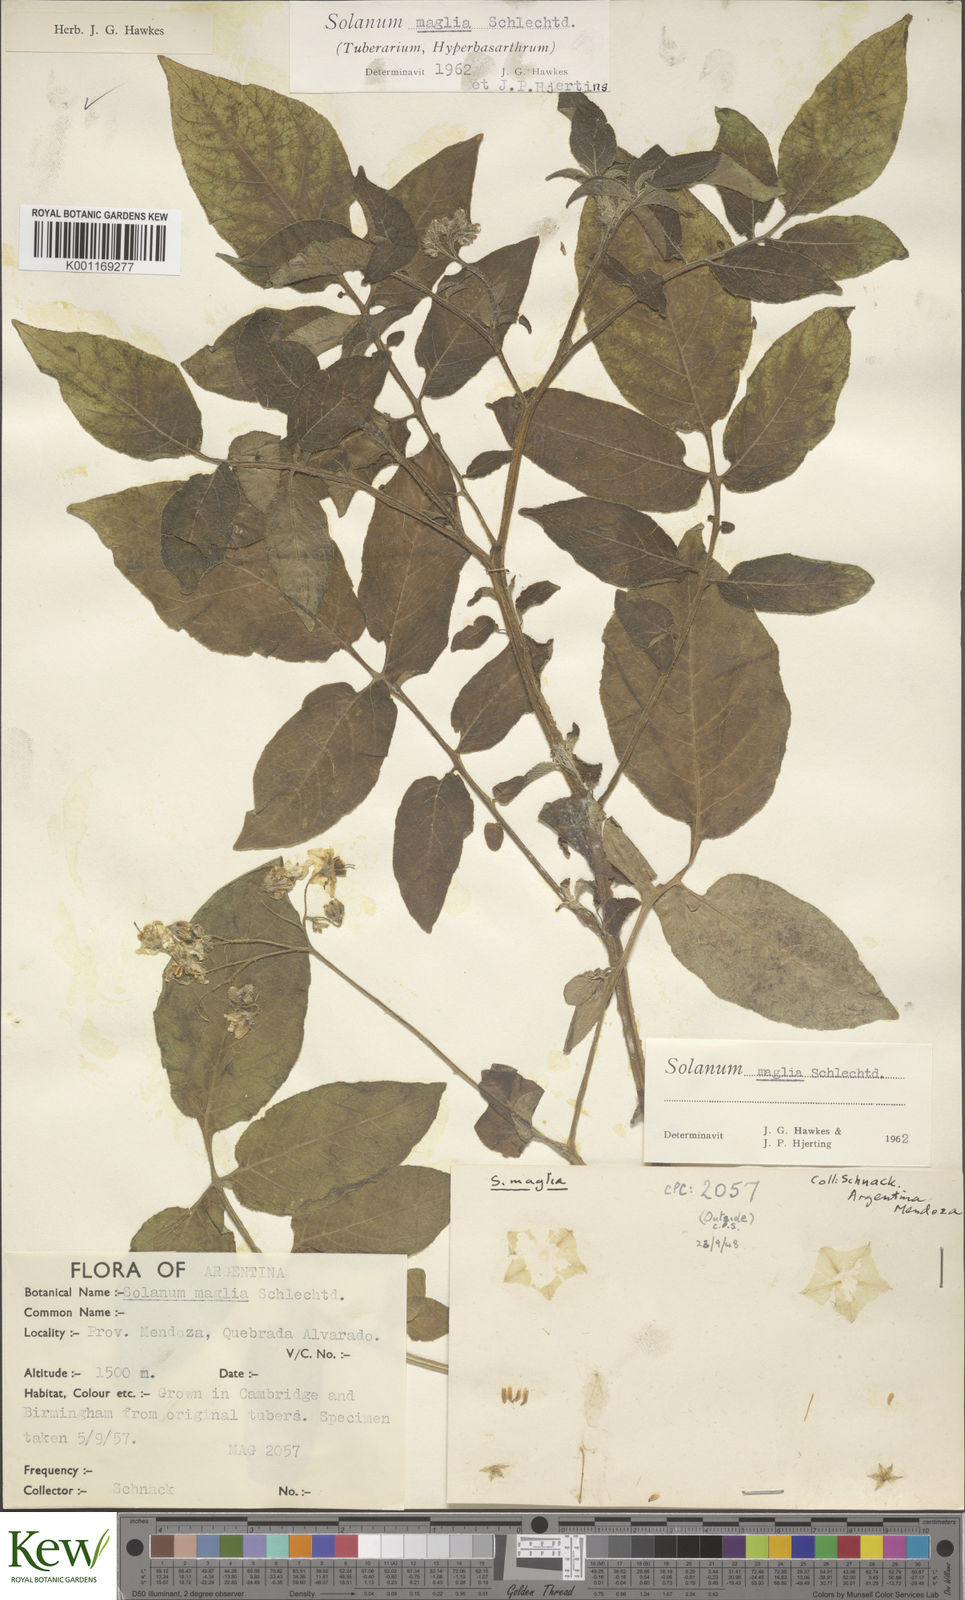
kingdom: Plantae
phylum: Tracheophyta
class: Magnoliopsida
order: Solanales
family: Solanaceae
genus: Solanum
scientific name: Solanum maglia
